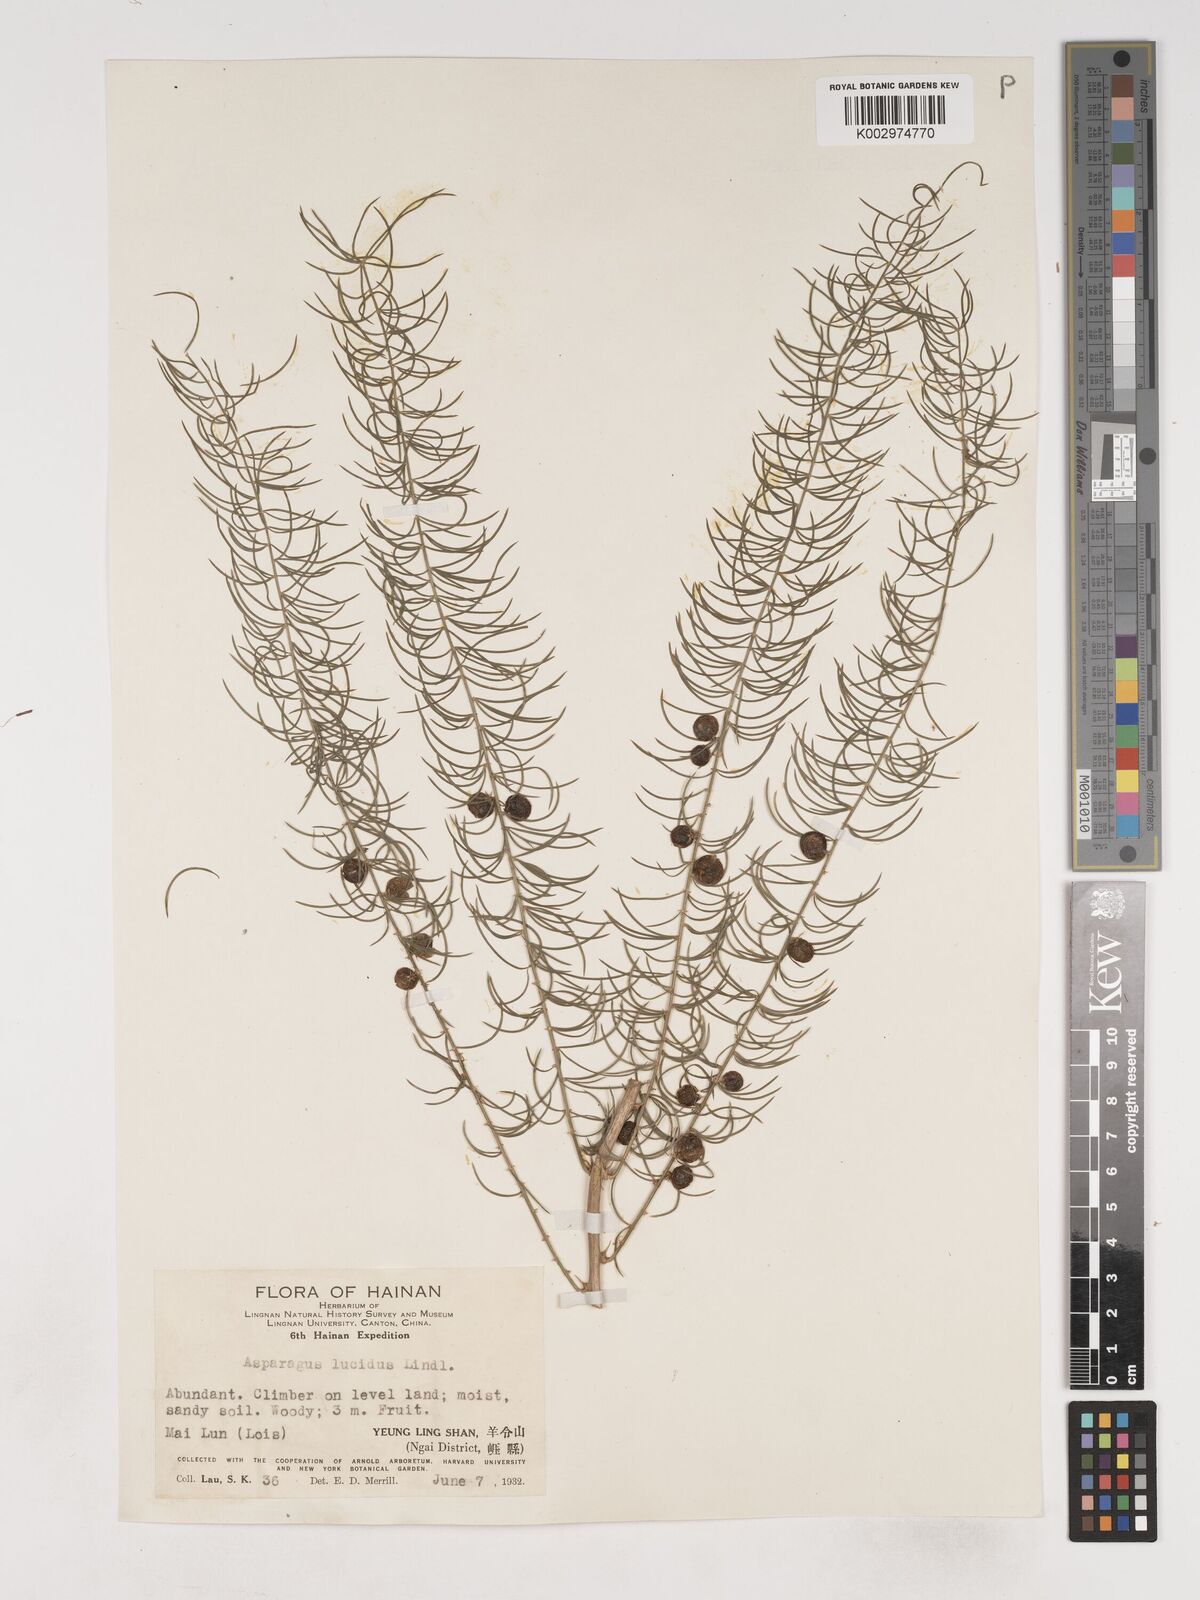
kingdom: Plantae
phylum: Tracheophyta
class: Liliopsida
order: Asparagales
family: Asparagaceae
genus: Asparagus
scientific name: Asparagus cochinchinensis
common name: Chinese asparagus
